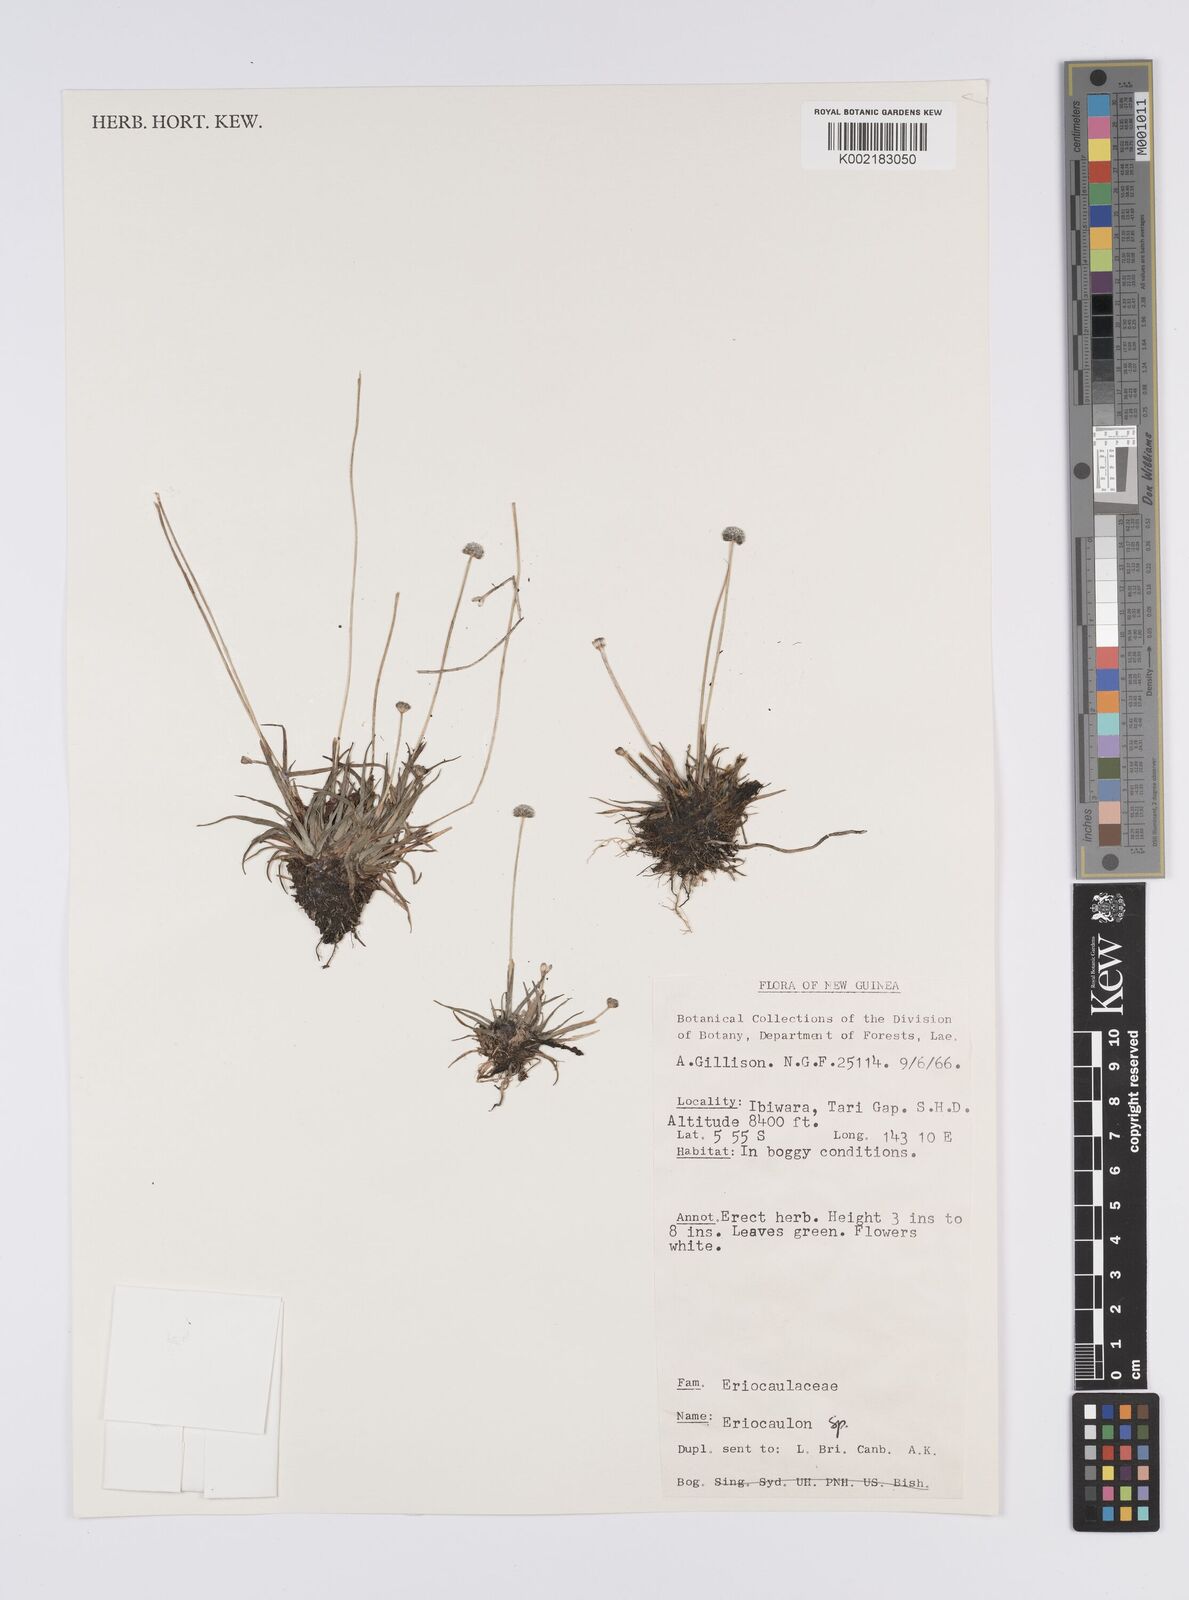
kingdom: Plantae
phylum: Tracheophyta
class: Liliopsida
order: Poales
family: Eriocaulaceae
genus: Eriocaulon
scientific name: Eriocaulon
